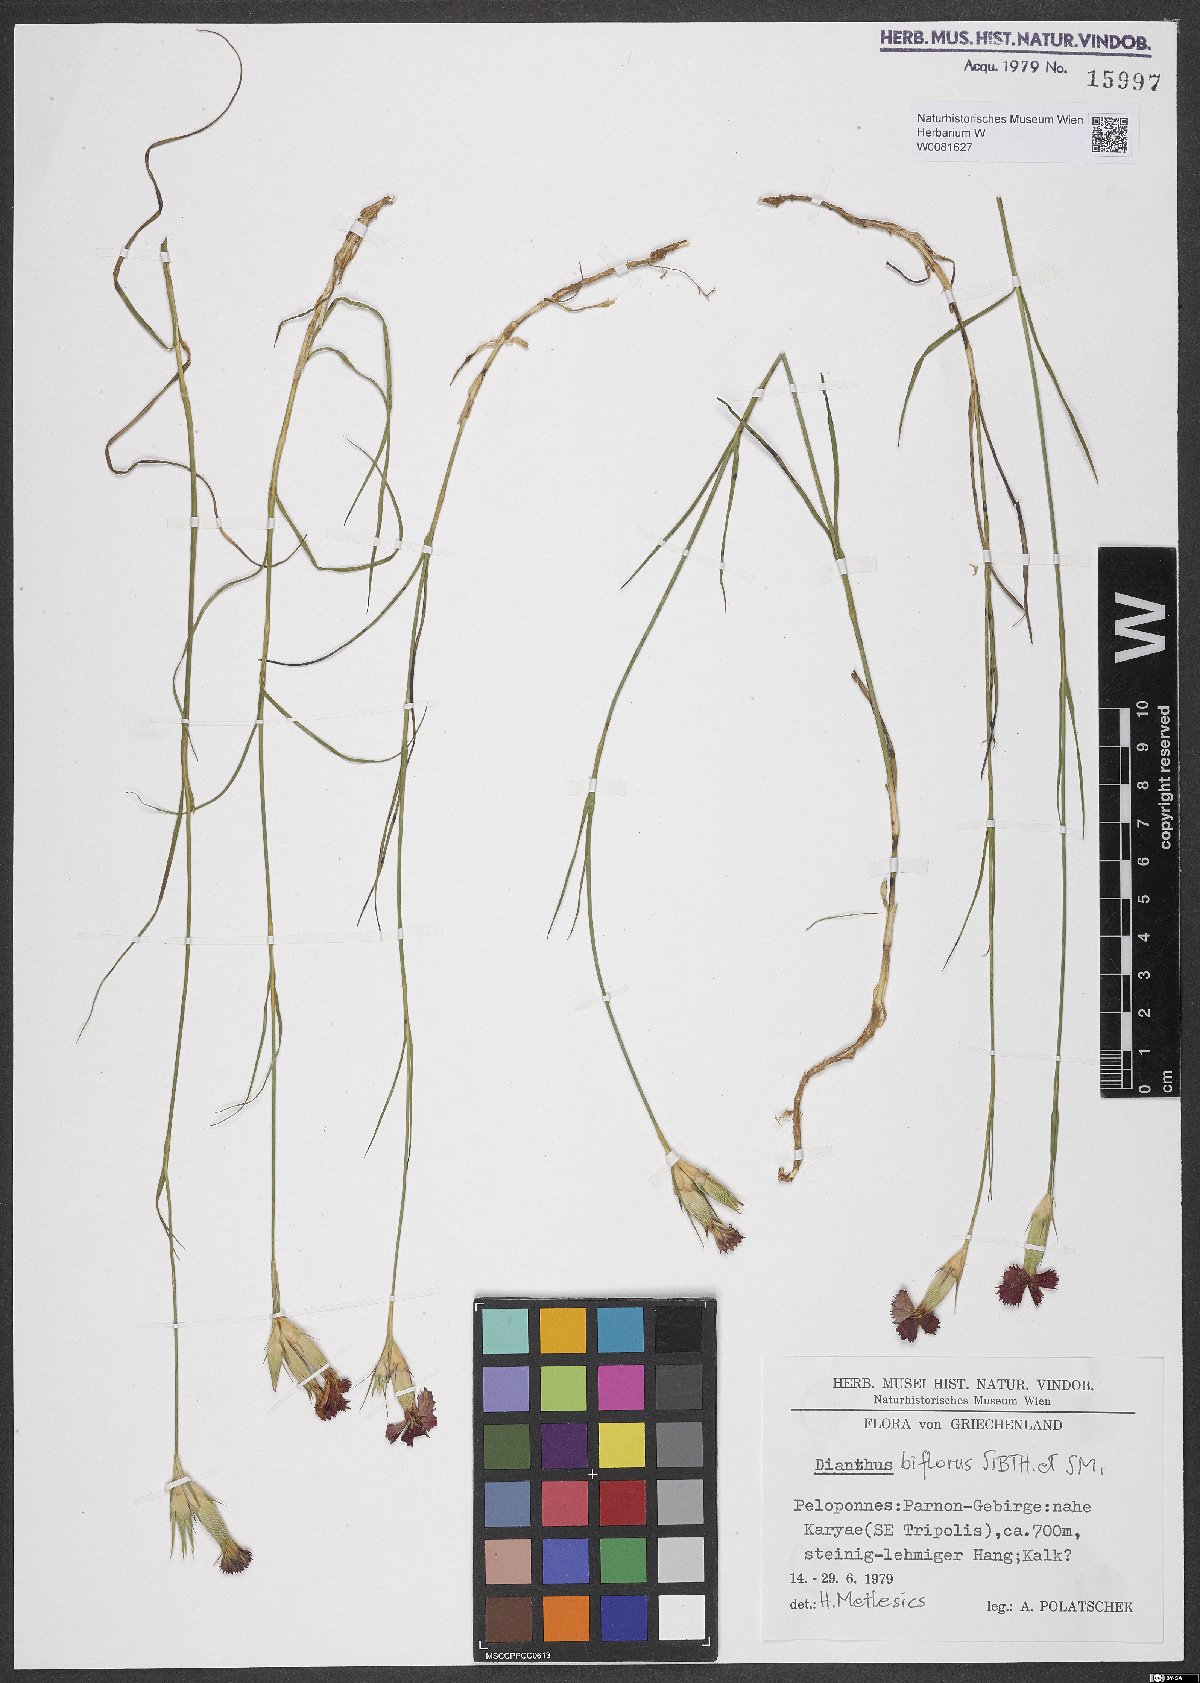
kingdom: Plantae
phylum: Tracheophyta
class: Magnoliopsida
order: Caryophyllales
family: Caryophyllaceae
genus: Dianthus
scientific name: Dianthus biflorus
